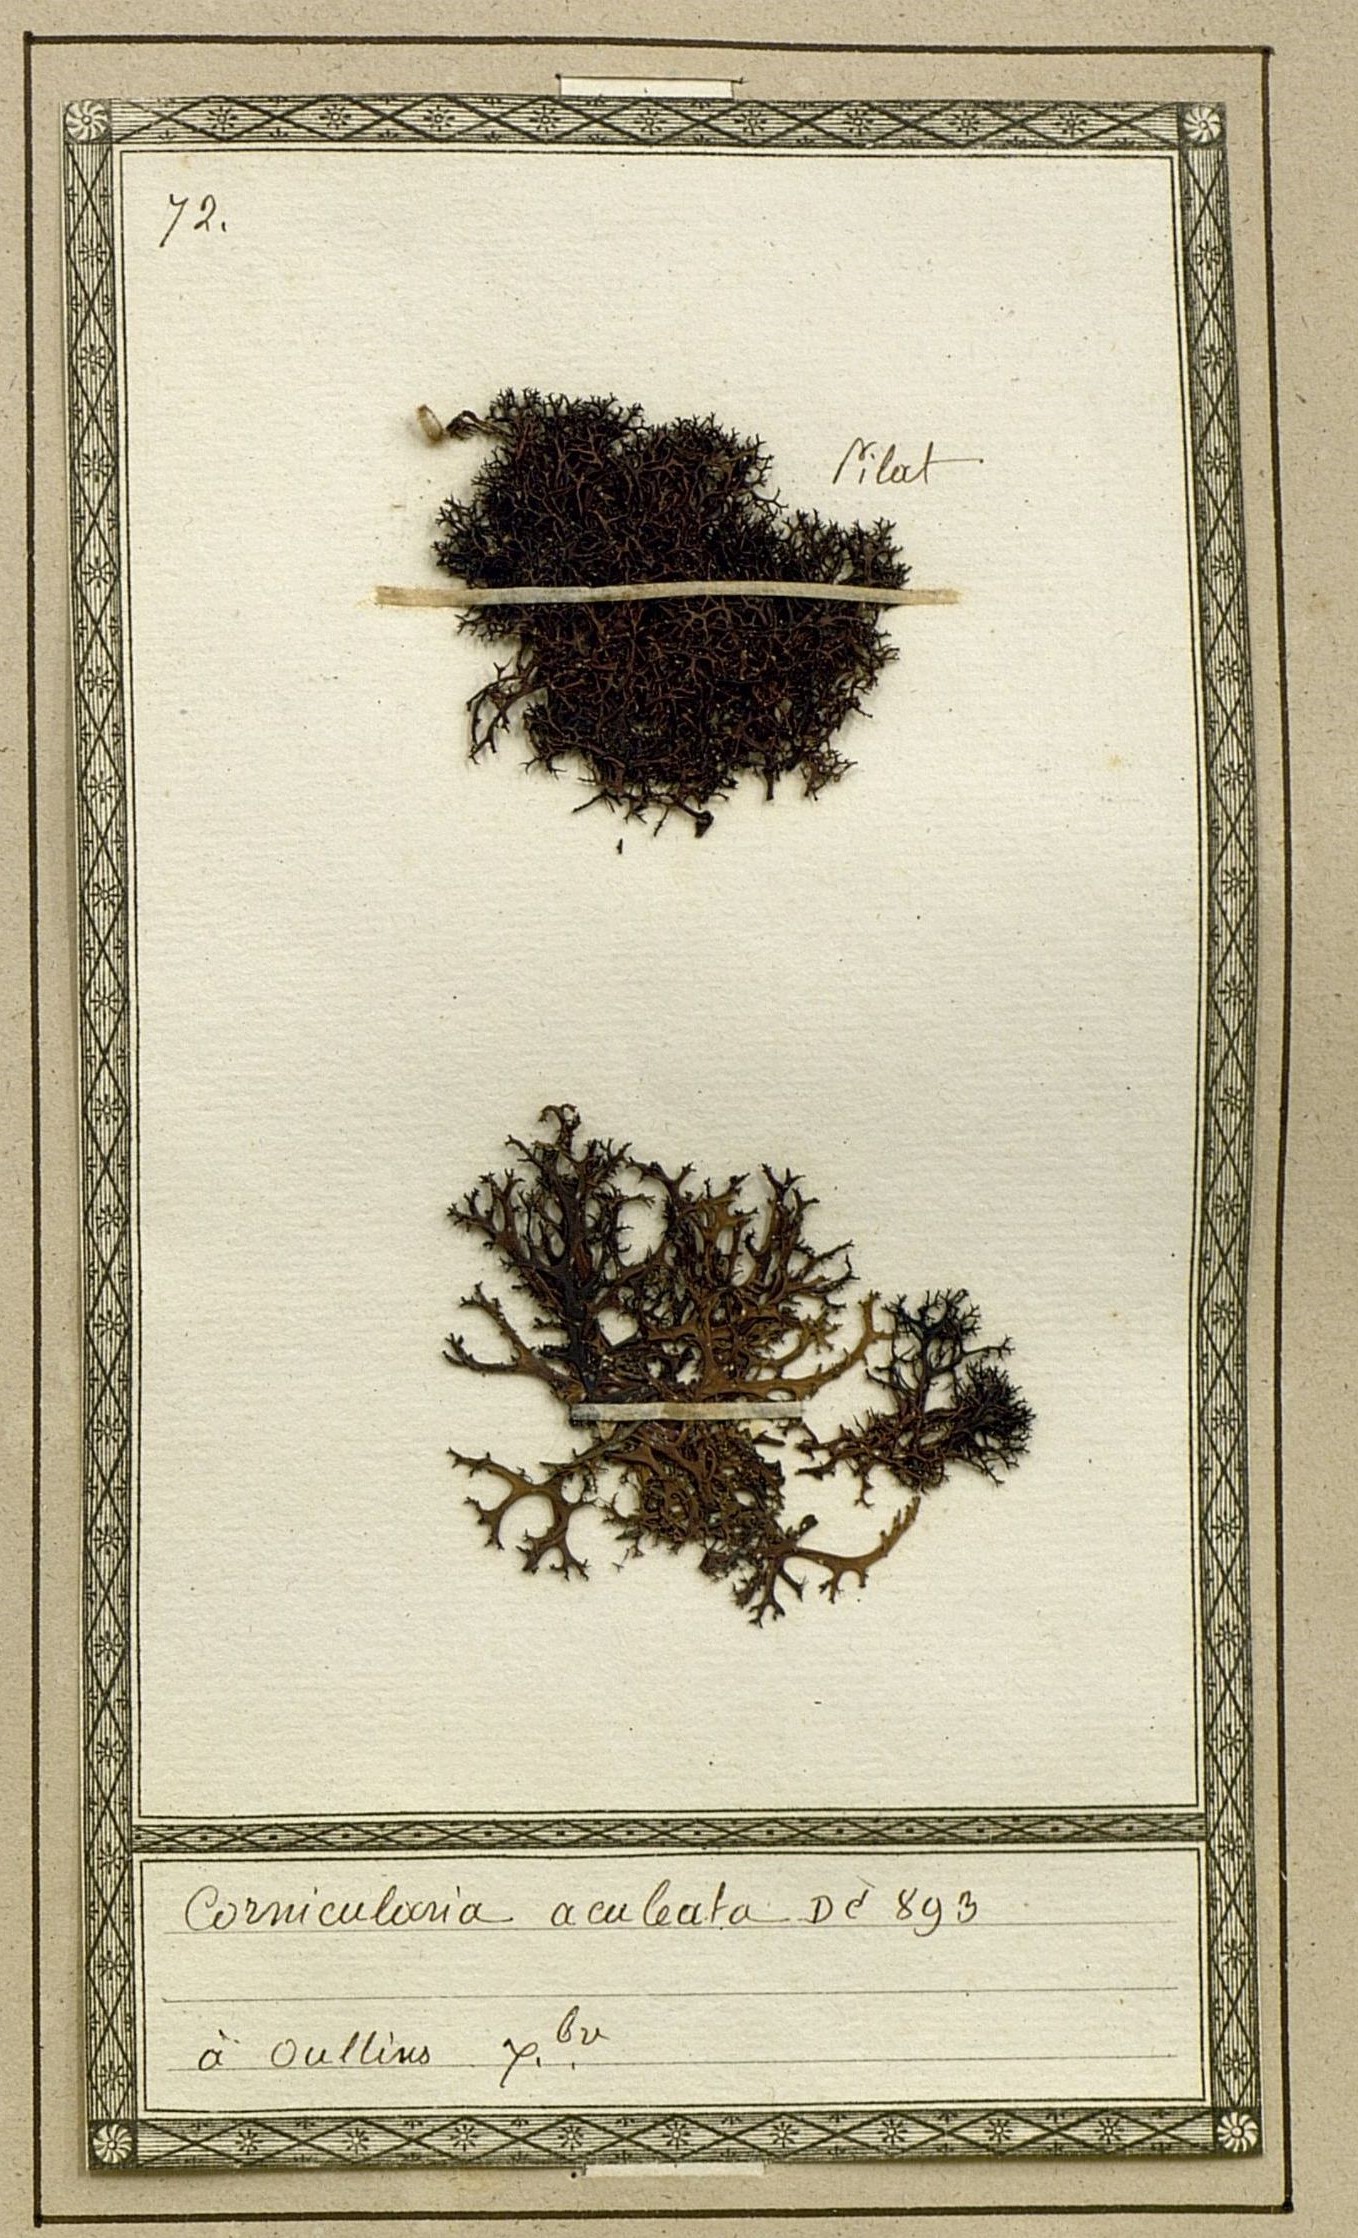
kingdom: Fungi
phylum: Ascomycota
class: Lecanoromycetes
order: Lecanorales
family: Parmeliaceae
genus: Cetraria
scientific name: Cetraria aculeata
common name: Spiny heath lichen
